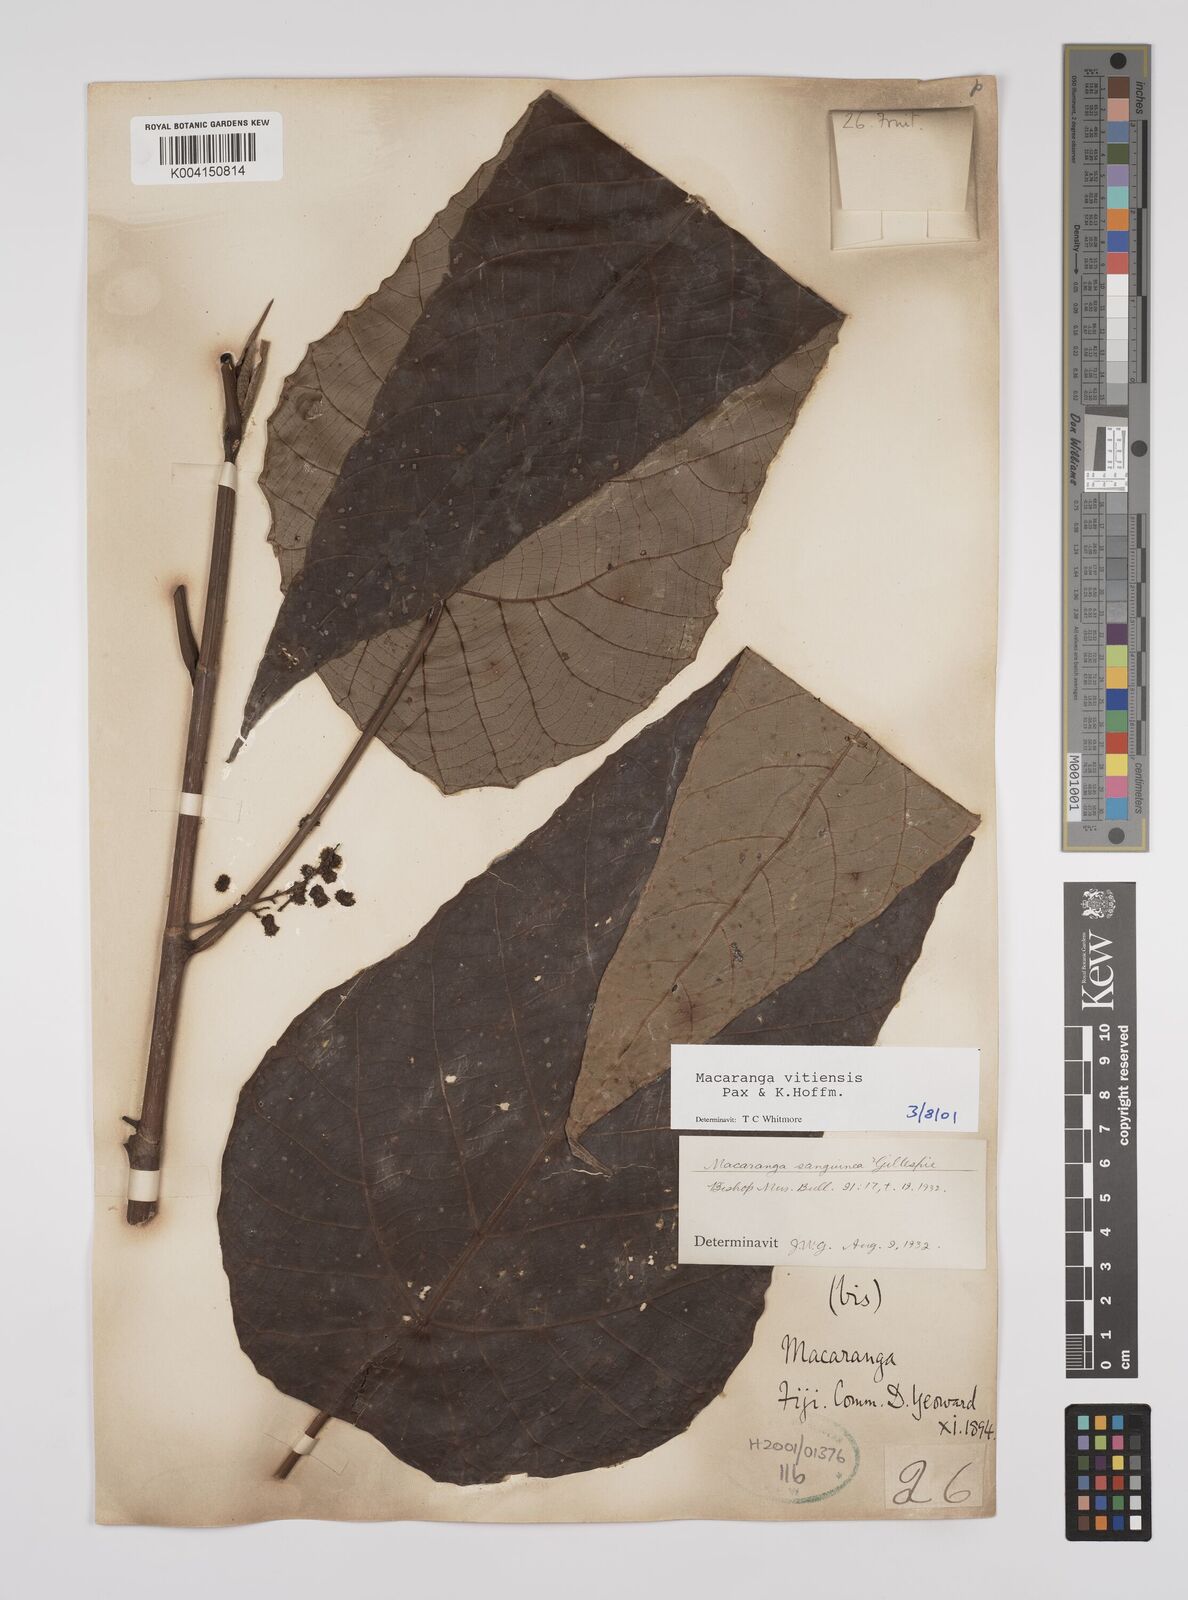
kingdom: Plantae
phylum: Tracheophyta
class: Magnoliopsida
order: Malpighiales
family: Euphorbiaceae
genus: Macaranga
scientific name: Macaranga vitiensis
